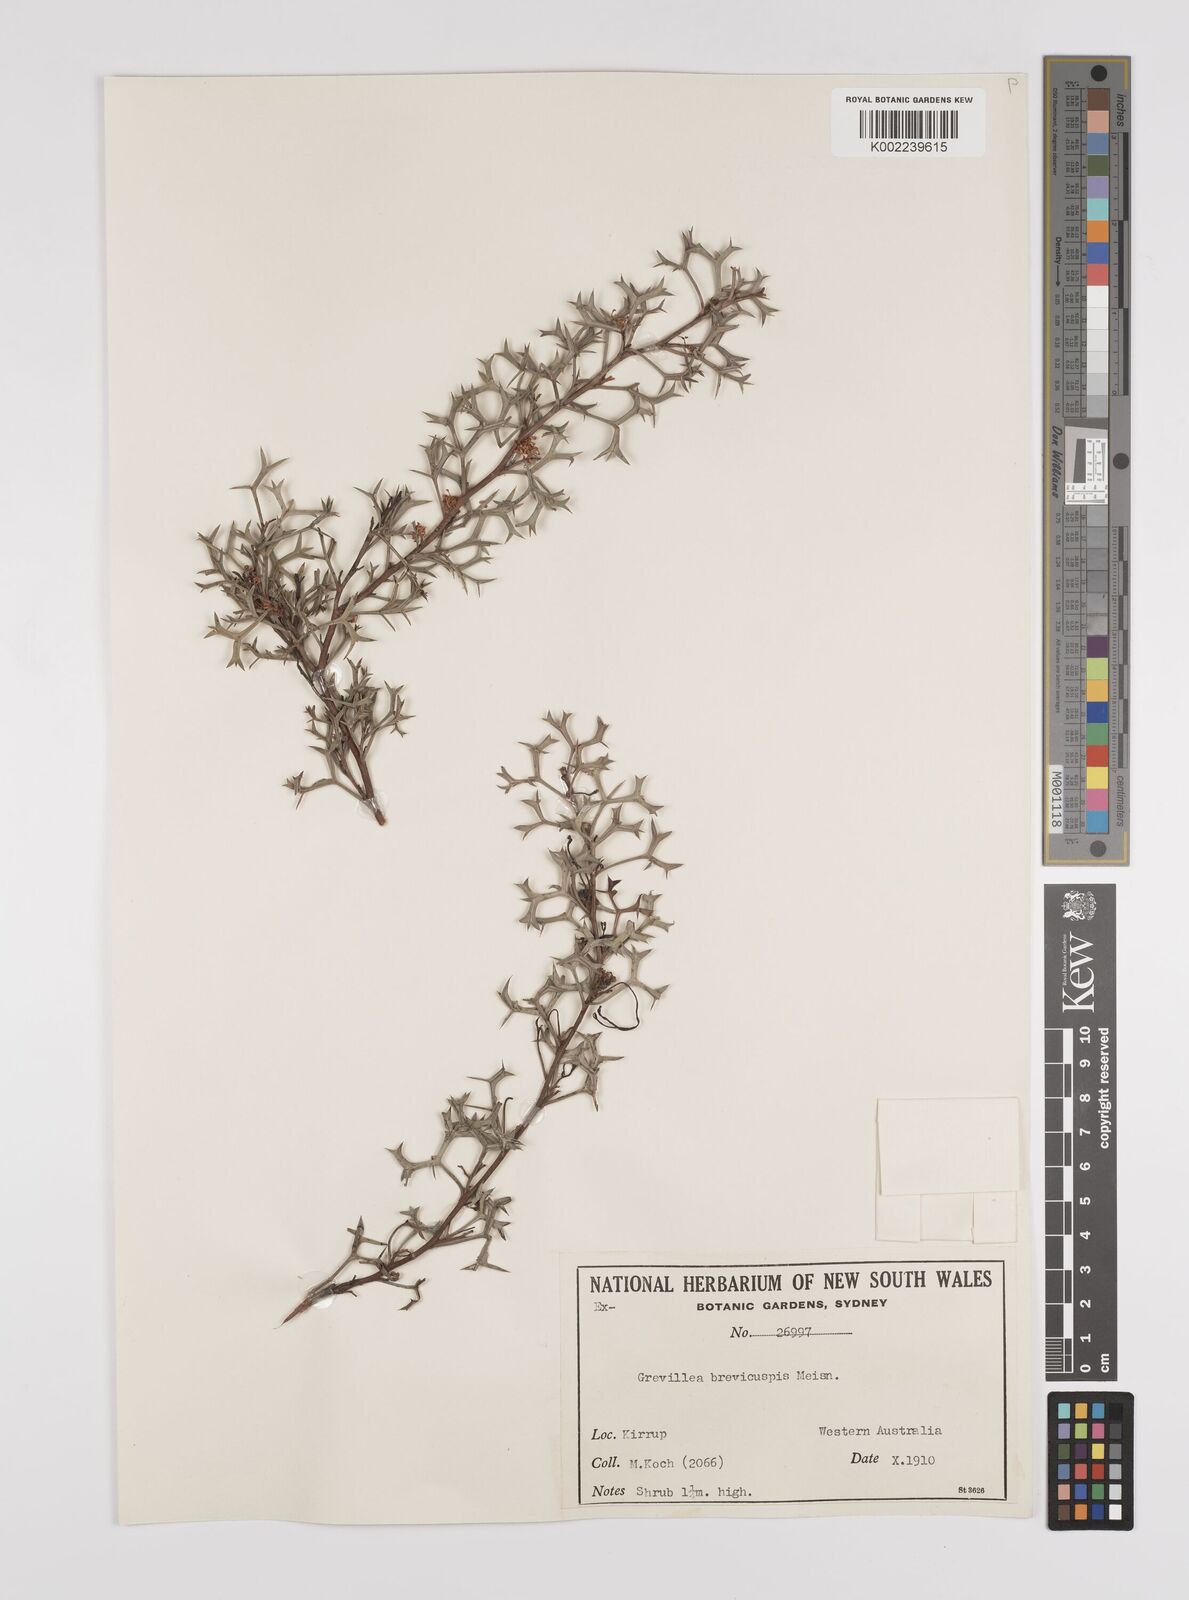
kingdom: Plantae
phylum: Tracheophyta
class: Magnoliopsida
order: Proteales
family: Proteaceae
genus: Grevillea
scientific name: Grevillea trifida
